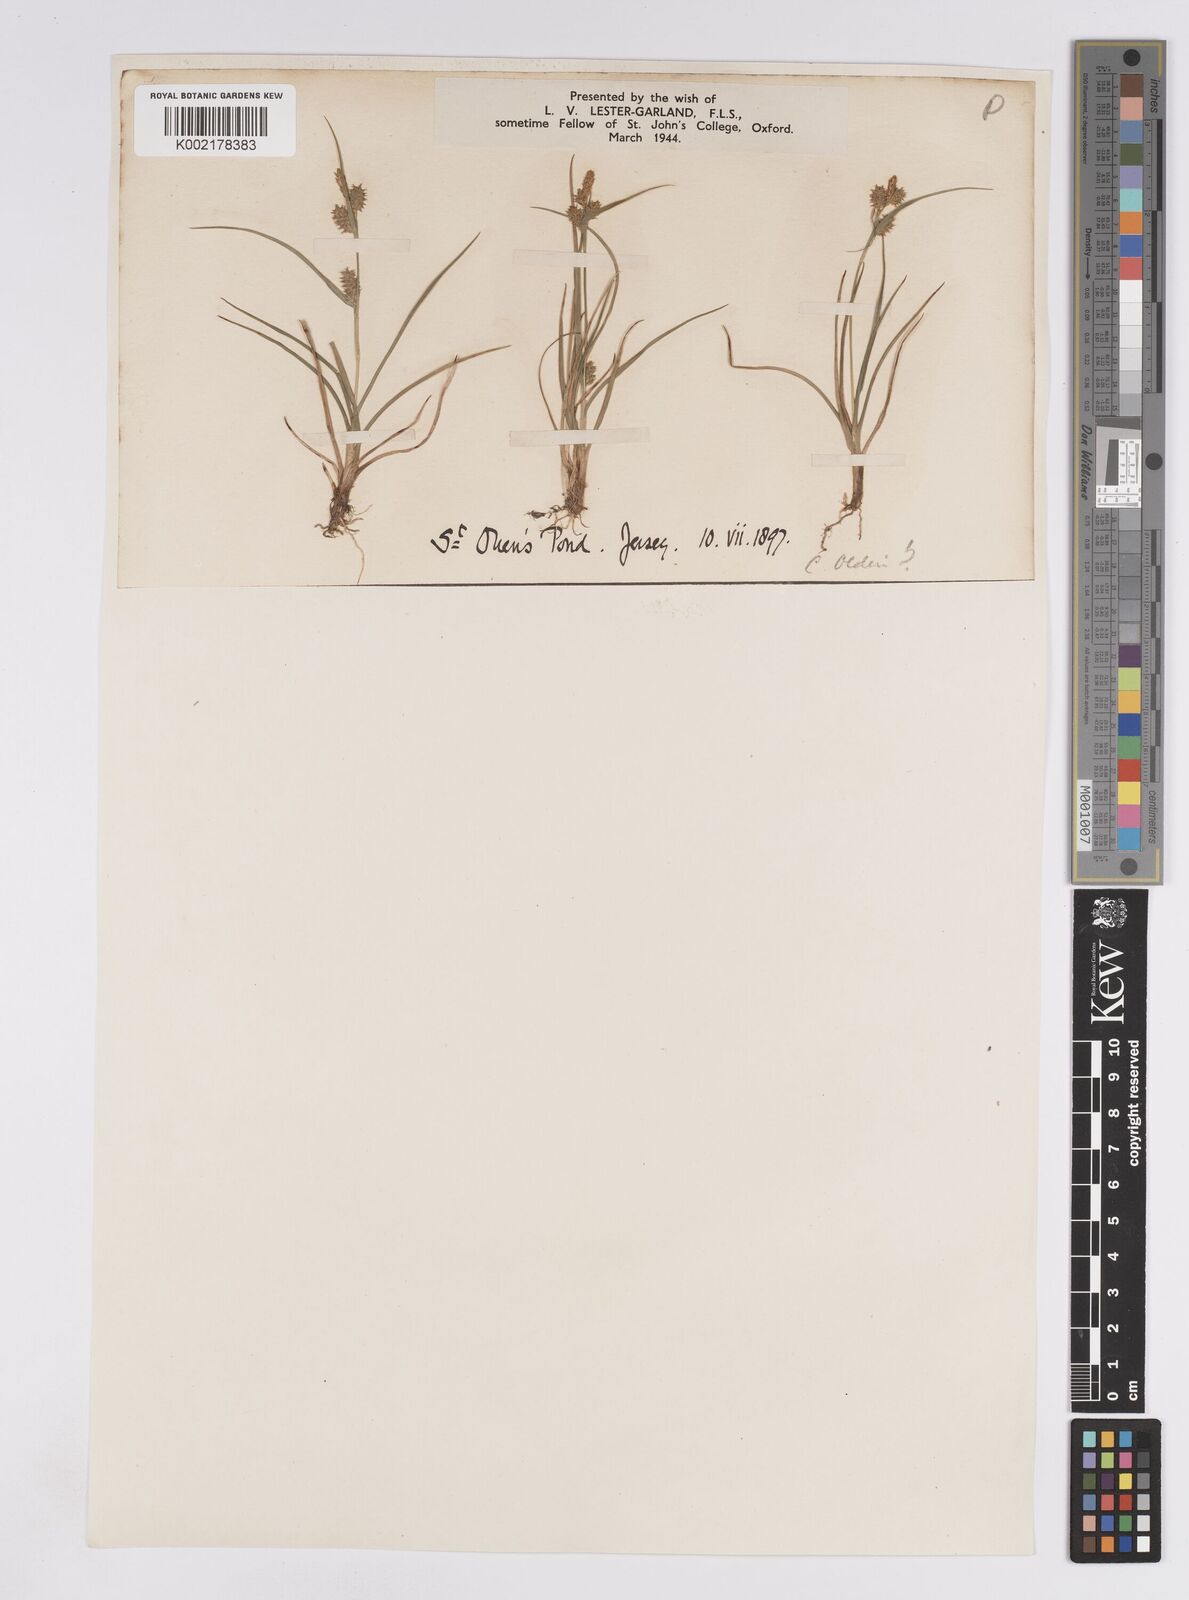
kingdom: Plantae
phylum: Tracheophyta
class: Liliopsida
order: Poales
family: Cyperaceae
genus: Carex
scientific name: Carex demissa
